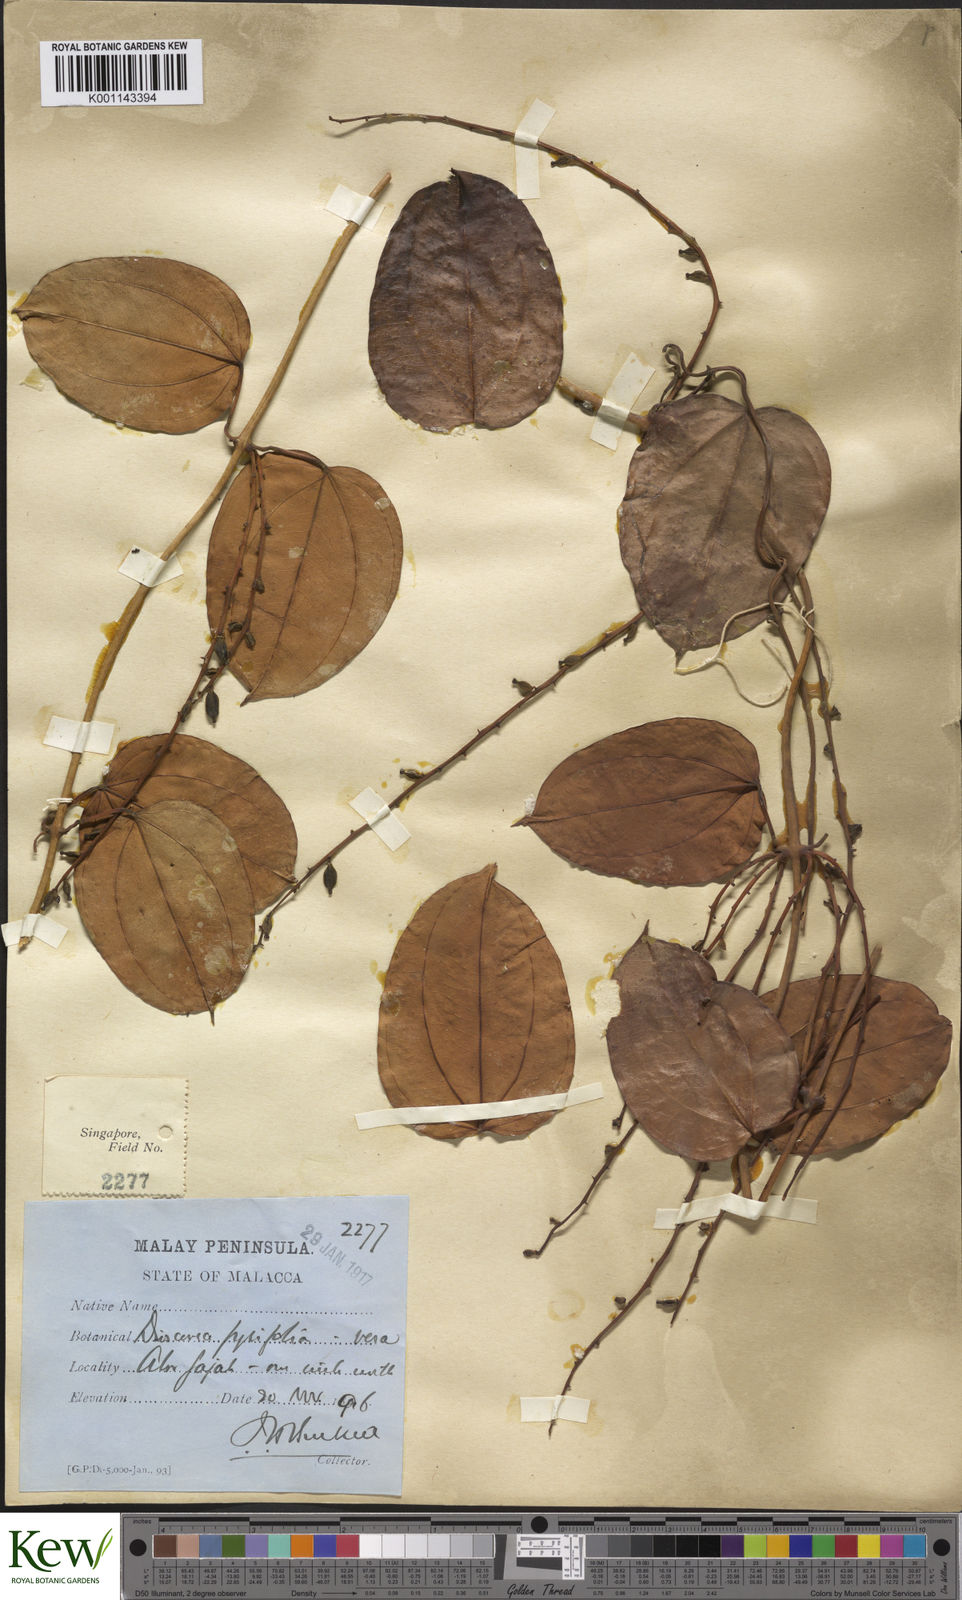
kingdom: Plantae
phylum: Tracheophyta
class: Liliopsida
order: Dioscoreales
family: Dioscoreaceae
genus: Dioscorea
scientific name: Dioscorea pyrifolia
